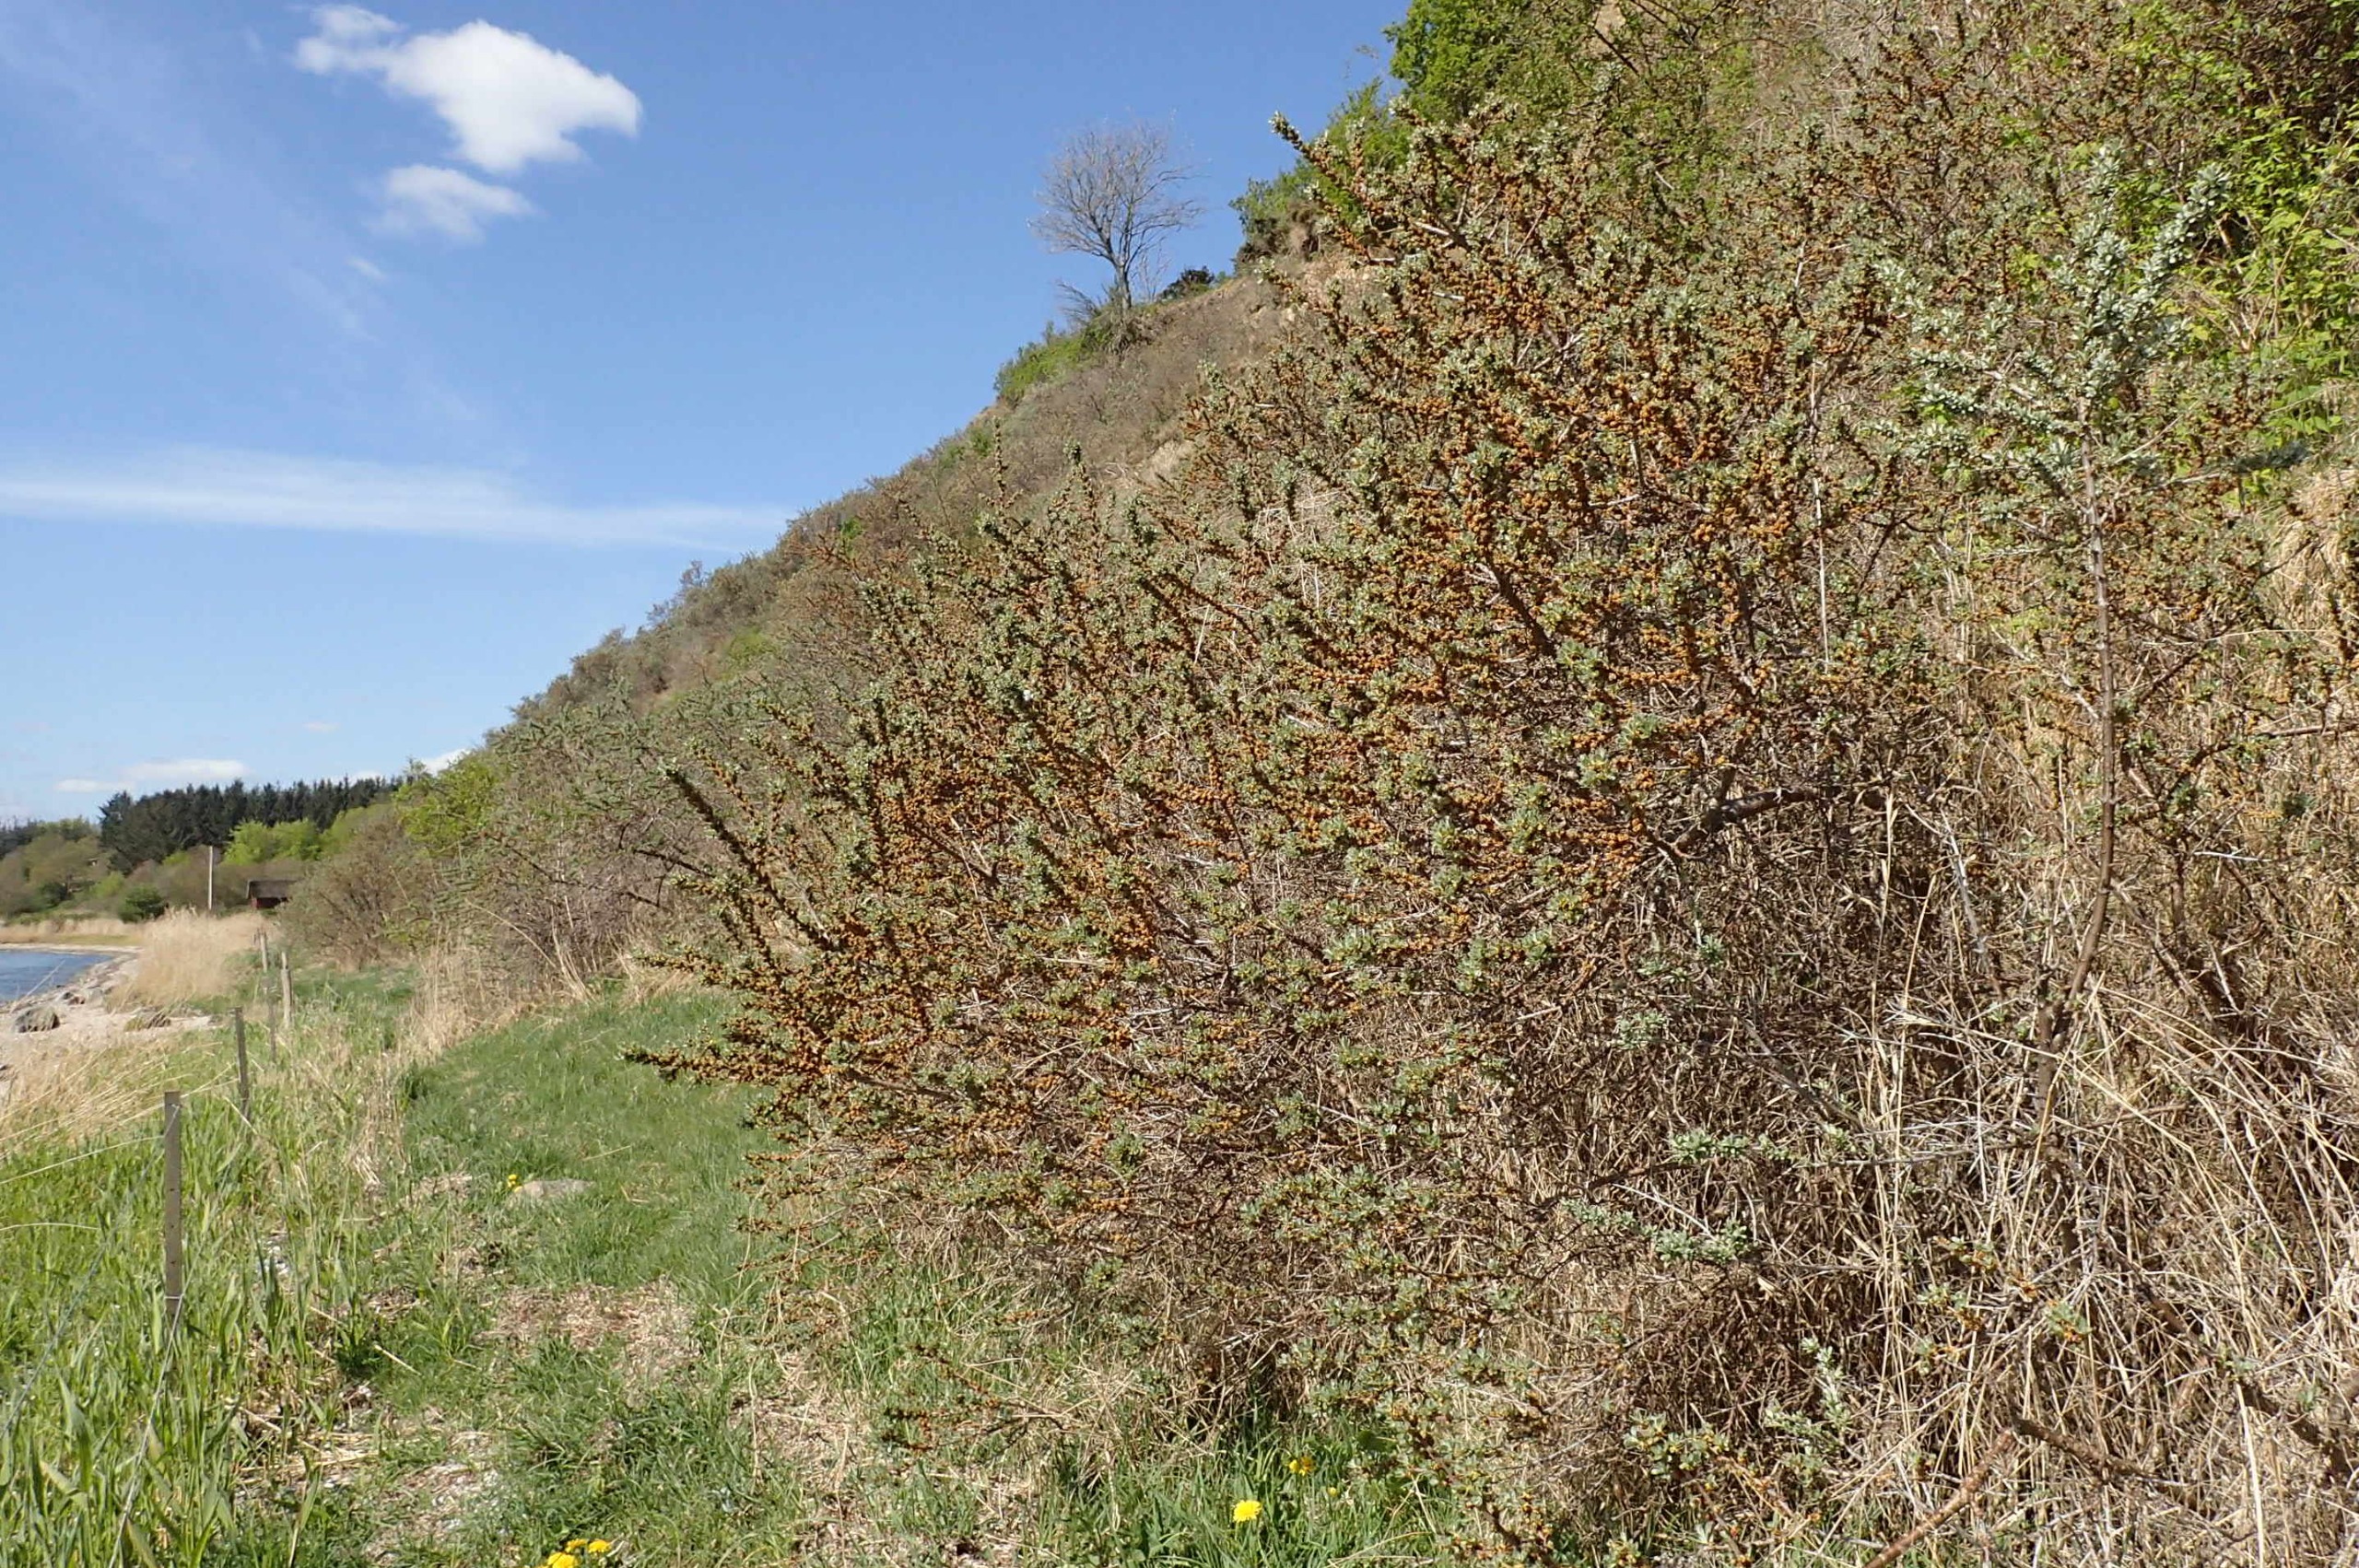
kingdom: Plantae
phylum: Tracheophyta
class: Magnoliopsida
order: Rosales
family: Elaeagnaceae
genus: Hippophae
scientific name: Hippophae rhamnoides
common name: Havtorn
